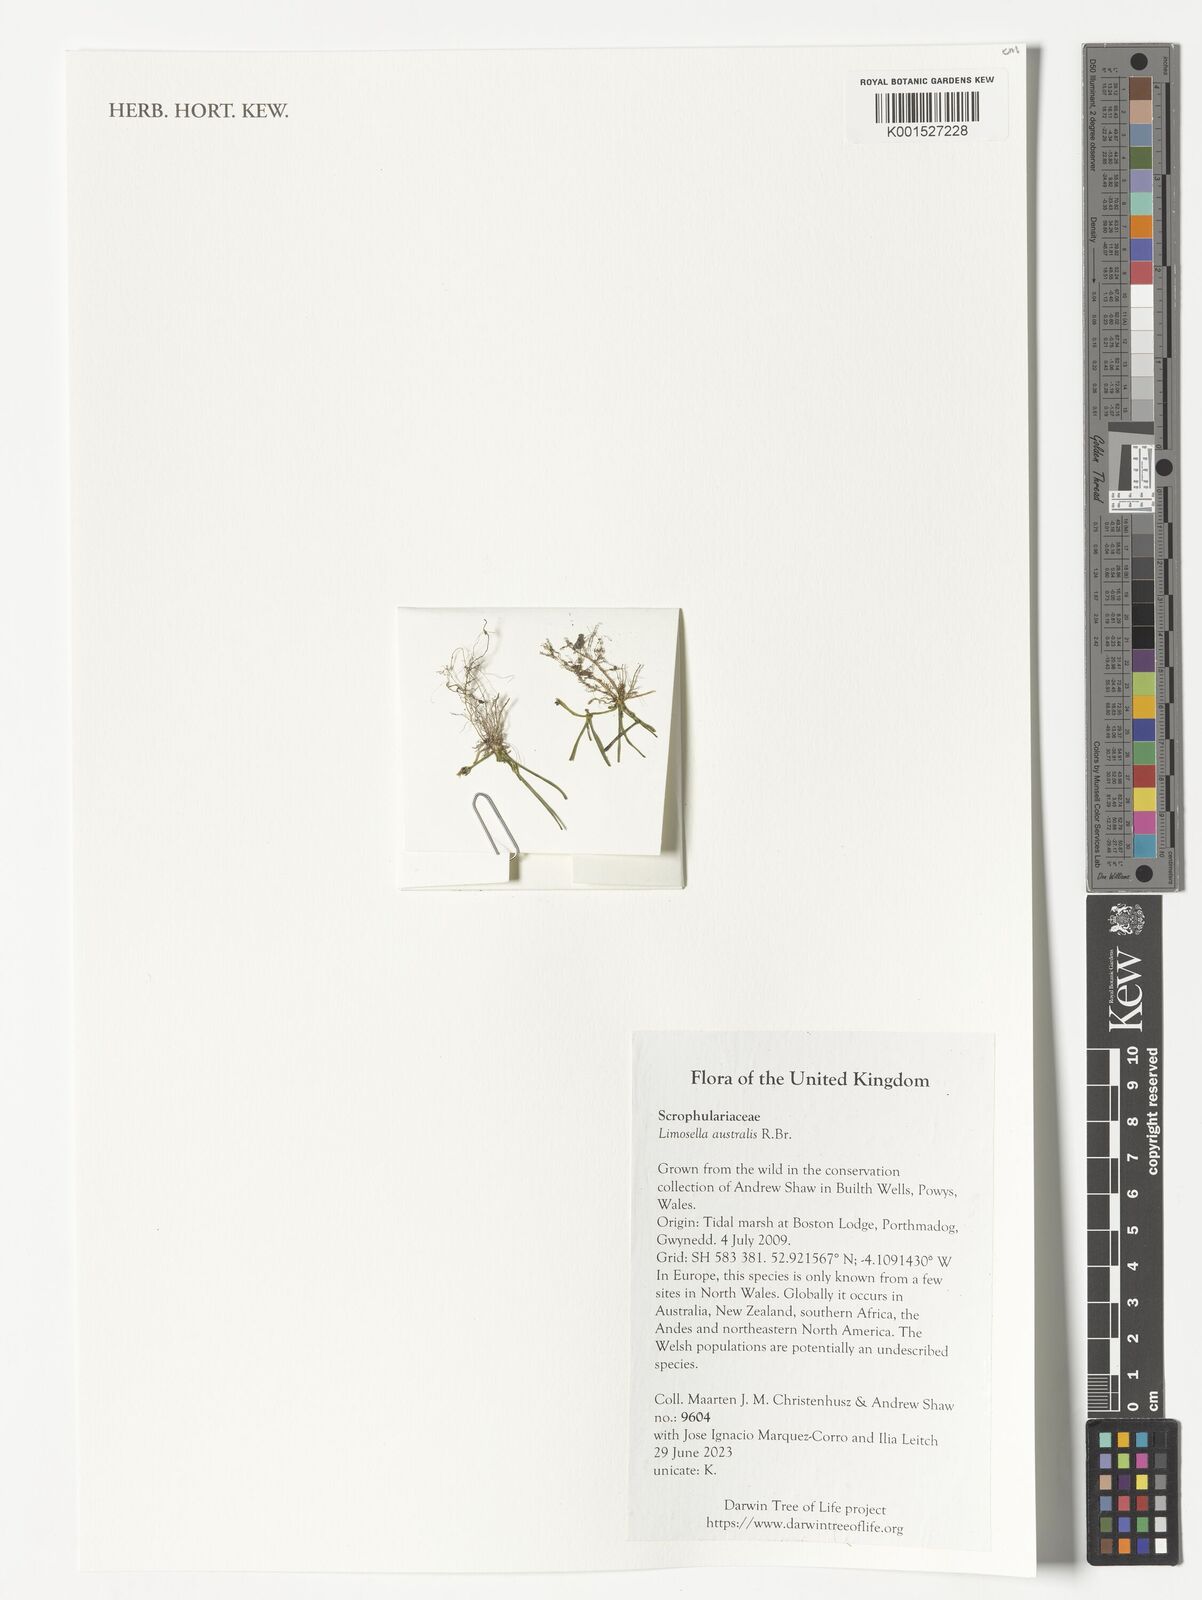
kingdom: Plantae
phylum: Tracheophyta
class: Magnoliopsida
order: Lamiales
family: Scrophulariaceae
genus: Limosella
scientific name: Limosella australis
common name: Welsh mudwort
